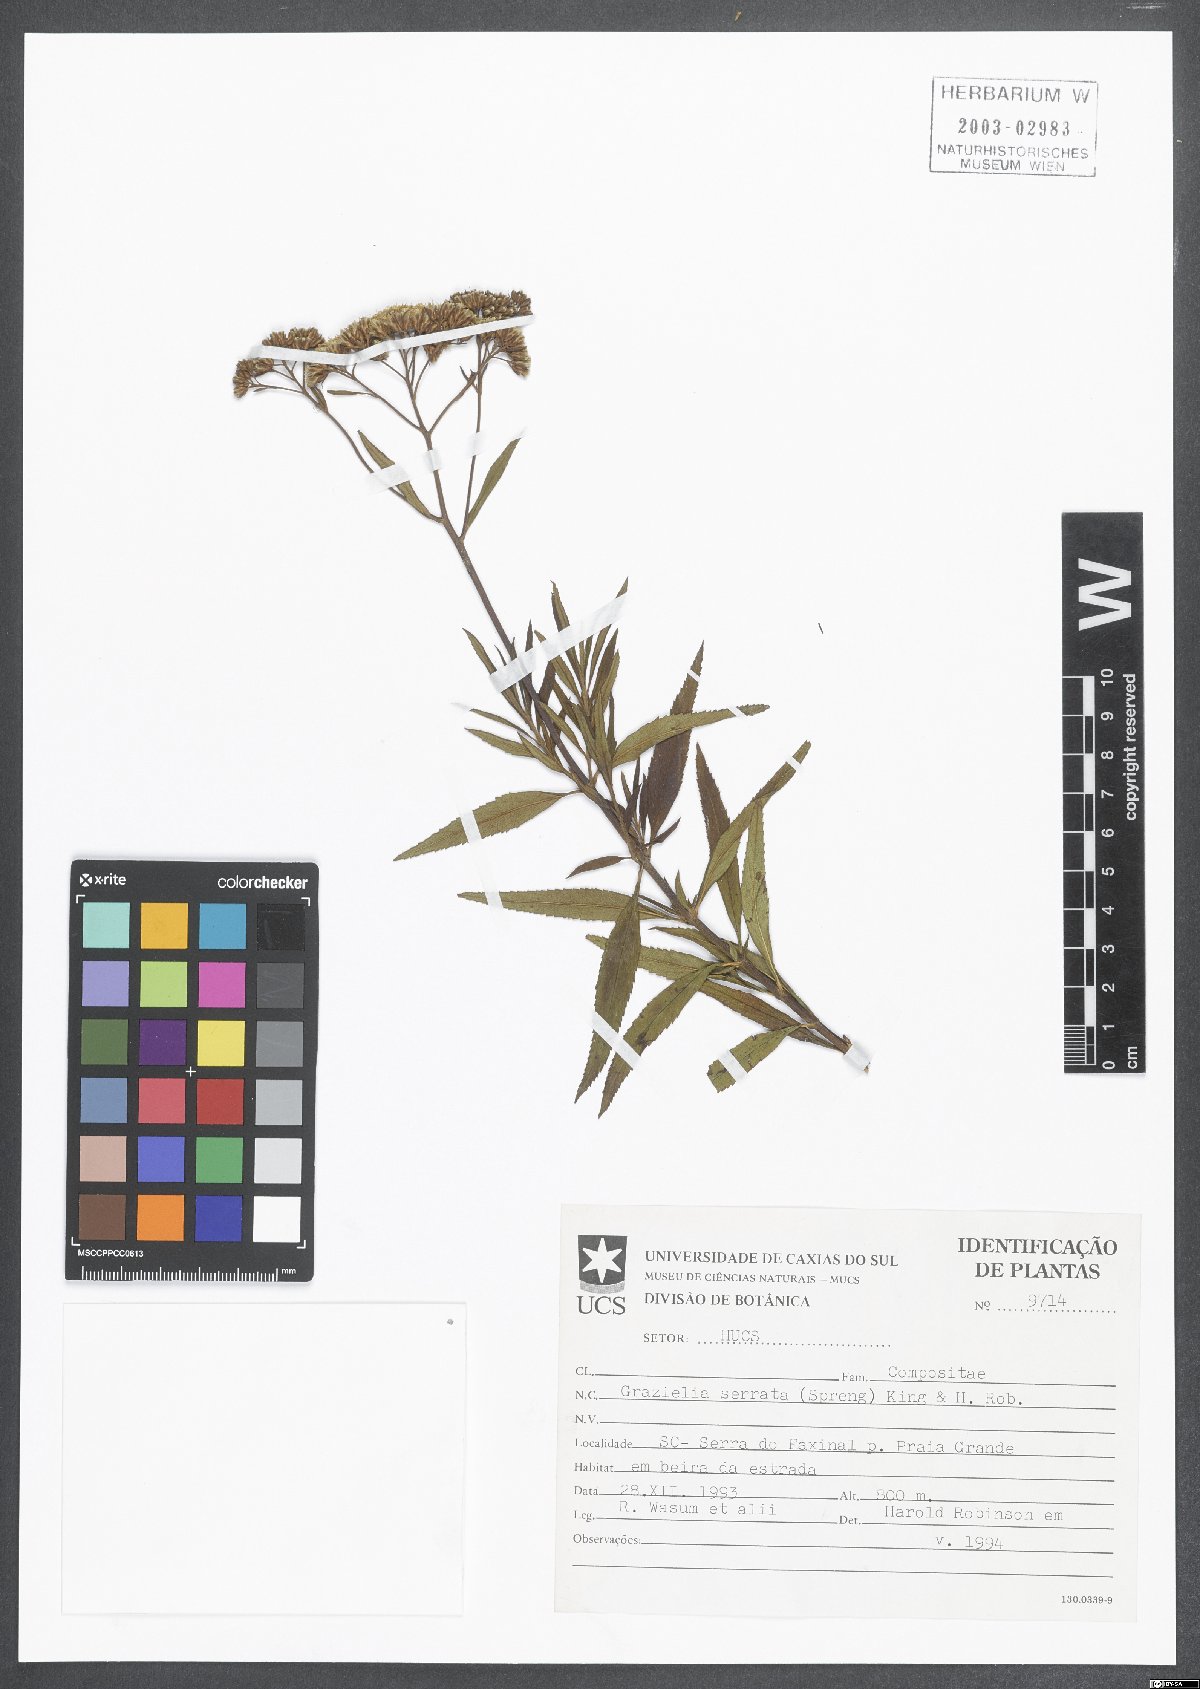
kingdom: Plantae
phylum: Tracheophyta
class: Magnoliopsida
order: Asterales
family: Asteraceae
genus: Grazielia
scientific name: Grazielia serrata
